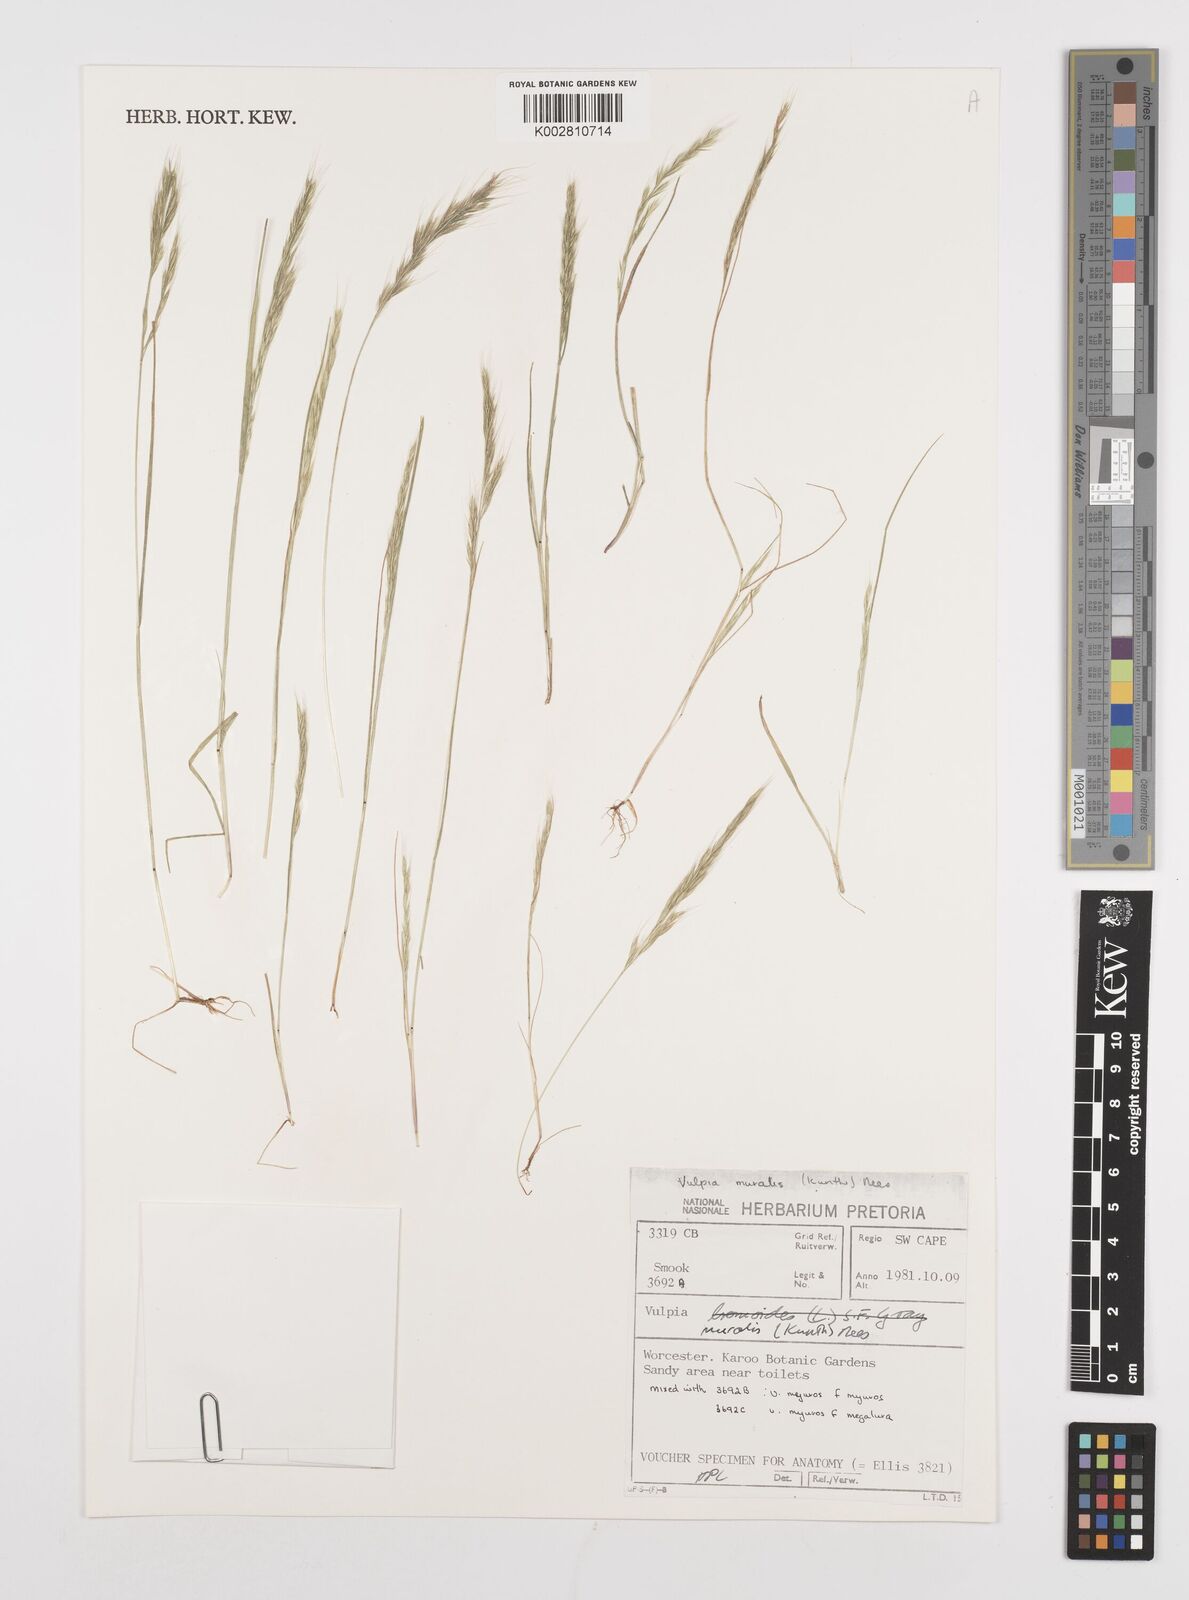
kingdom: Plantae
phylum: Tracheophyta
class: Liliopsida
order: Poales
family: Poaceae
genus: Festuca
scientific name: Festuca muralis
